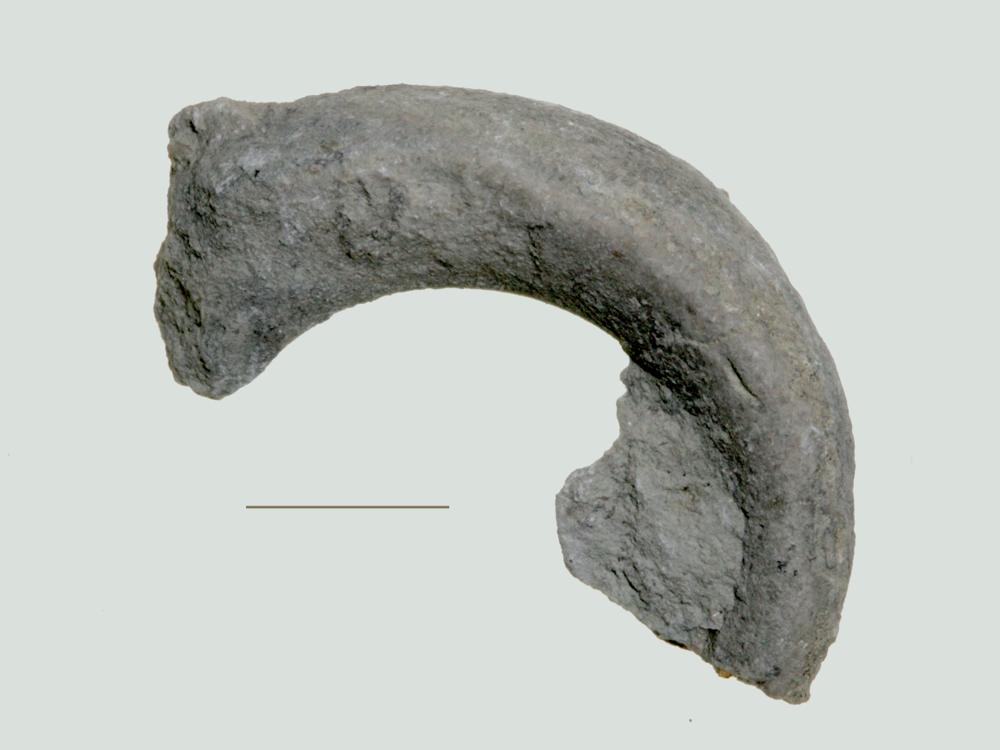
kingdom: Animalia
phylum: Mollusca
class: Gastropoda
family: Euomphalidae
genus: Ecculiomphalus
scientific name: Ecculiomphalus
